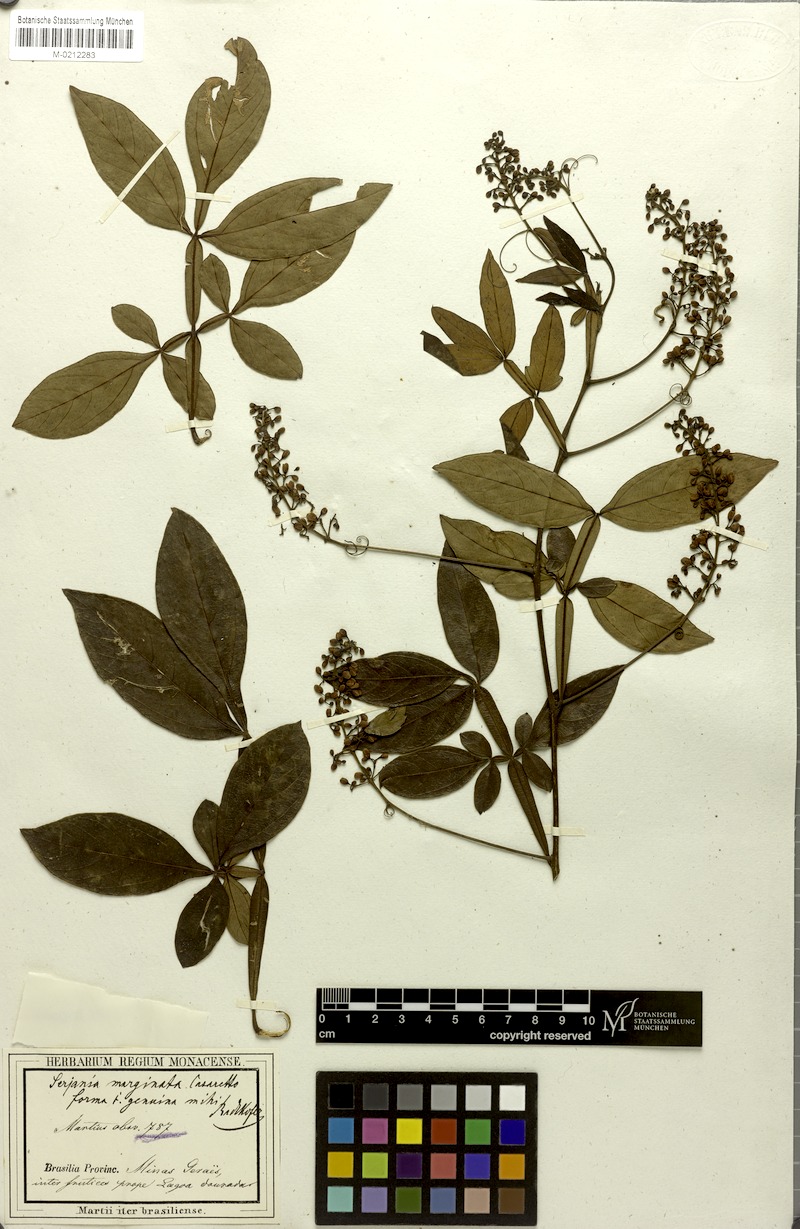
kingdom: Plantae
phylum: Tracheophyta
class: Magnoliopsida
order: Sapindales
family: Sapindaceae
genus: Serjania
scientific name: Serjania marginata
